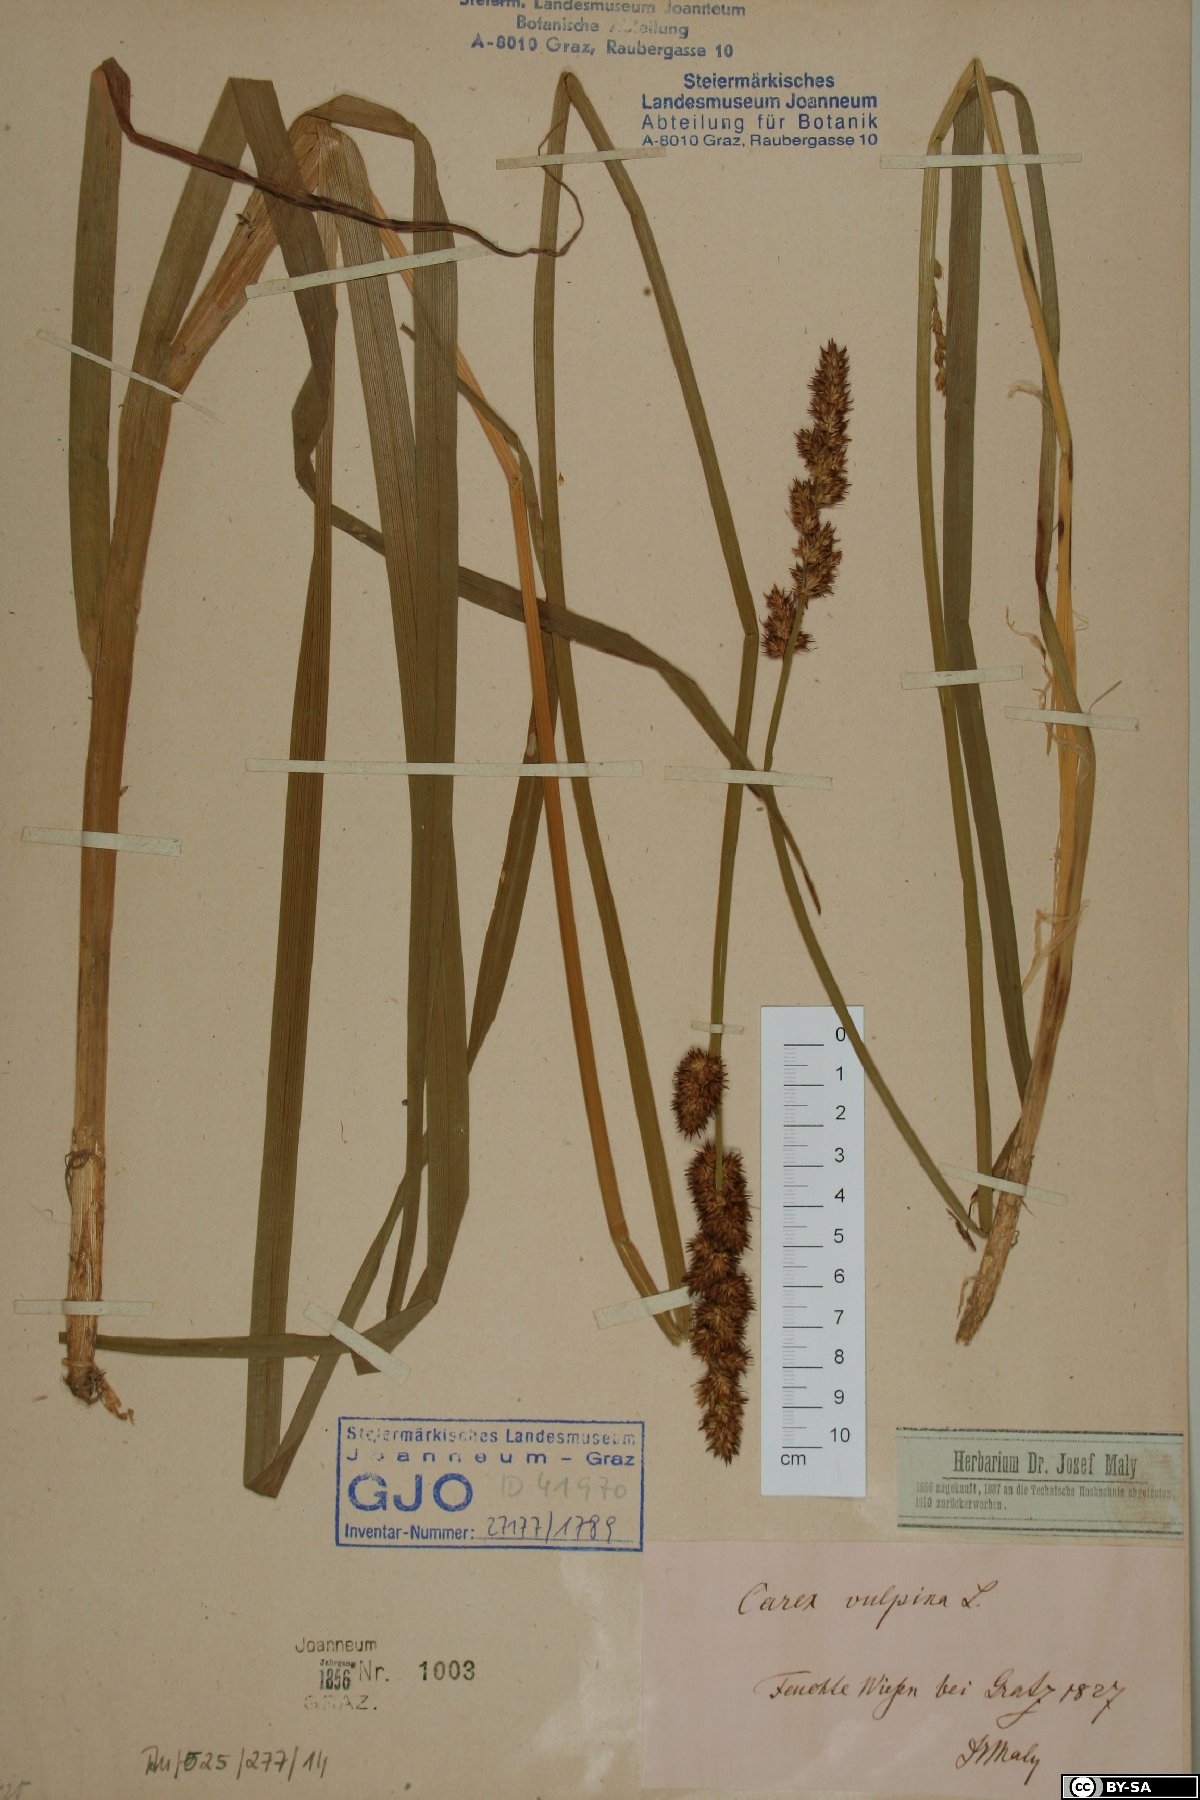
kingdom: Plantae
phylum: Tracheophyta
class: Liliopsida
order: Poales
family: Cyperaceae
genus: Carex
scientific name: Carex vulpina
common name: True fox-sedge
